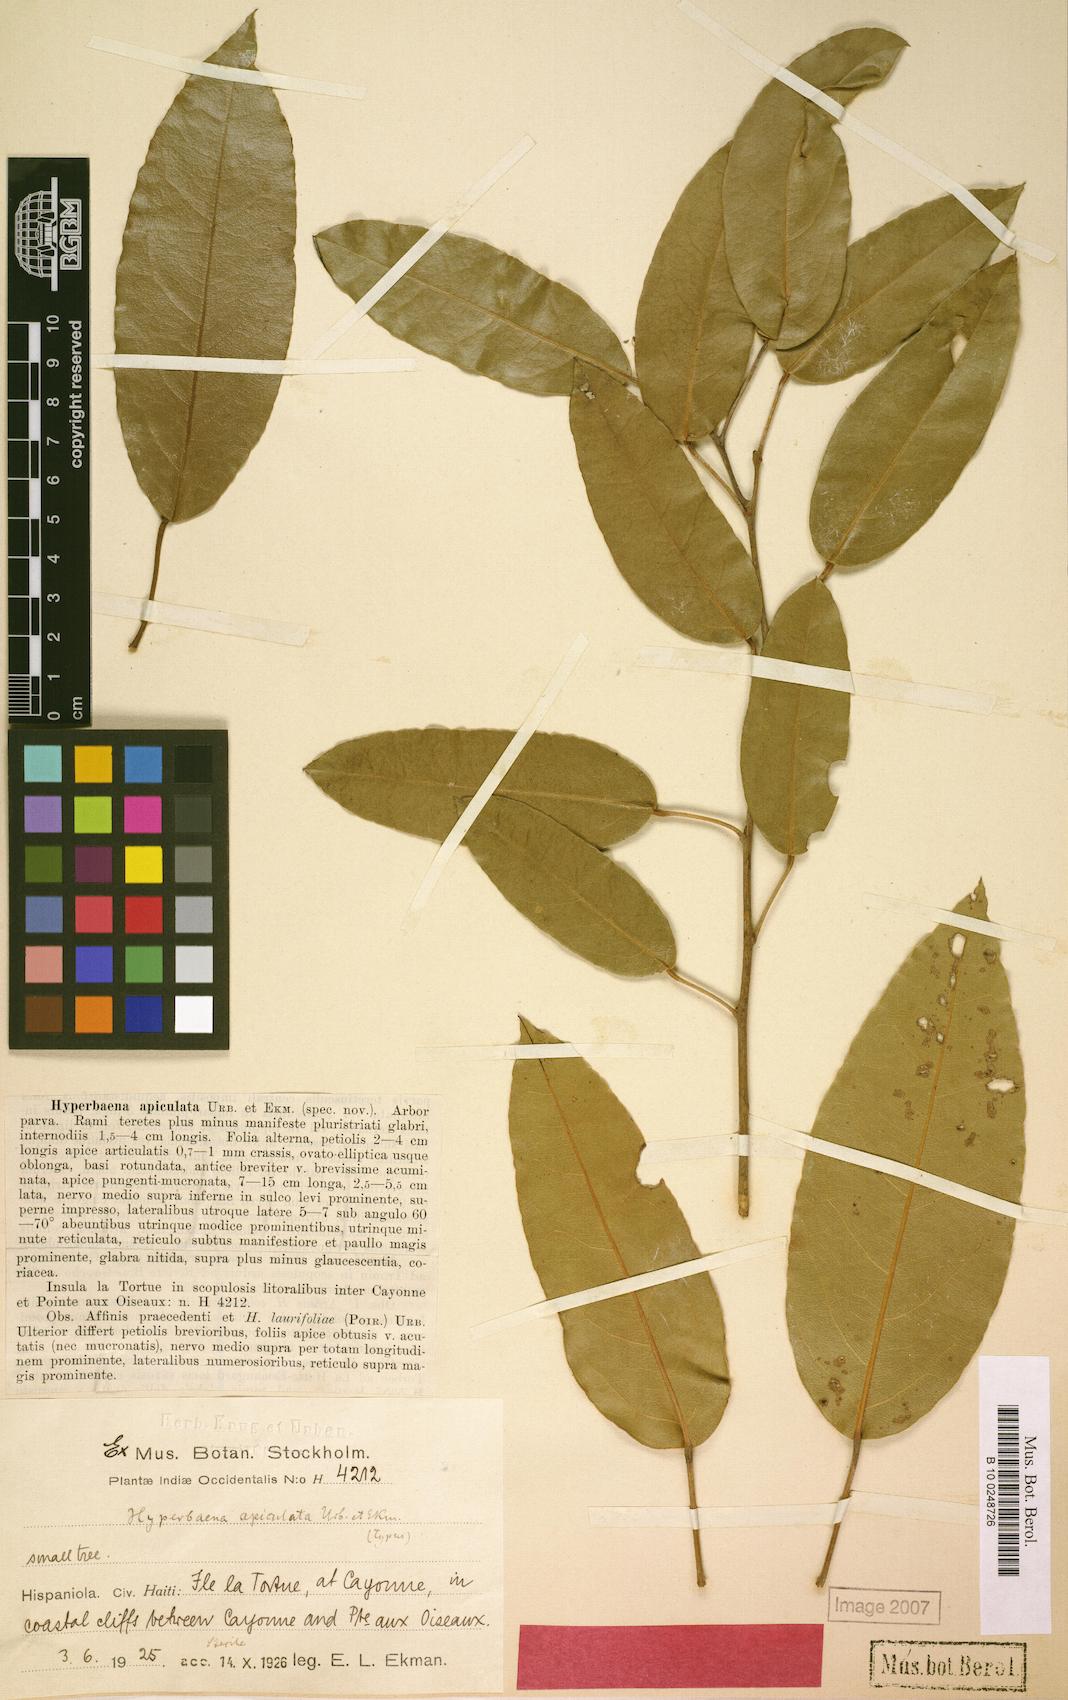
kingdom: Plantae
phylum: Tracheophyta
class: Magnoliopsida
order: Ranunculales
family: Menispermaceae
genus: Hyperbaena
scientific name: Hyperbaena laurifolia
